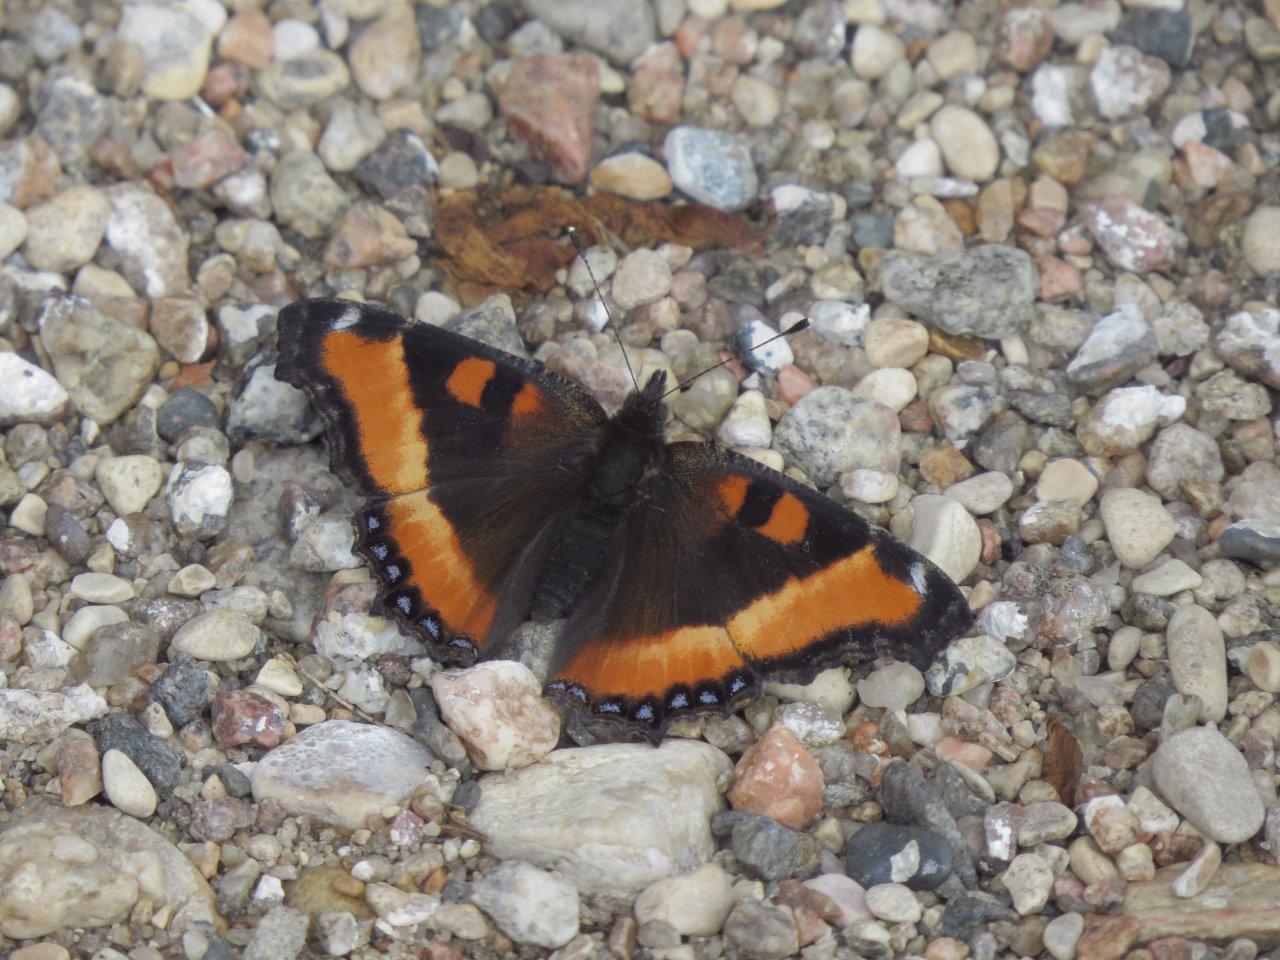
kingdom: Animalia
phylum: Arthropoda
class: Insecta
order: Lepidoptera
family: Nymphalidae
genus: Aglais
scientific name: Aglais milberti
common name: Milbert's Tortoiseshell
